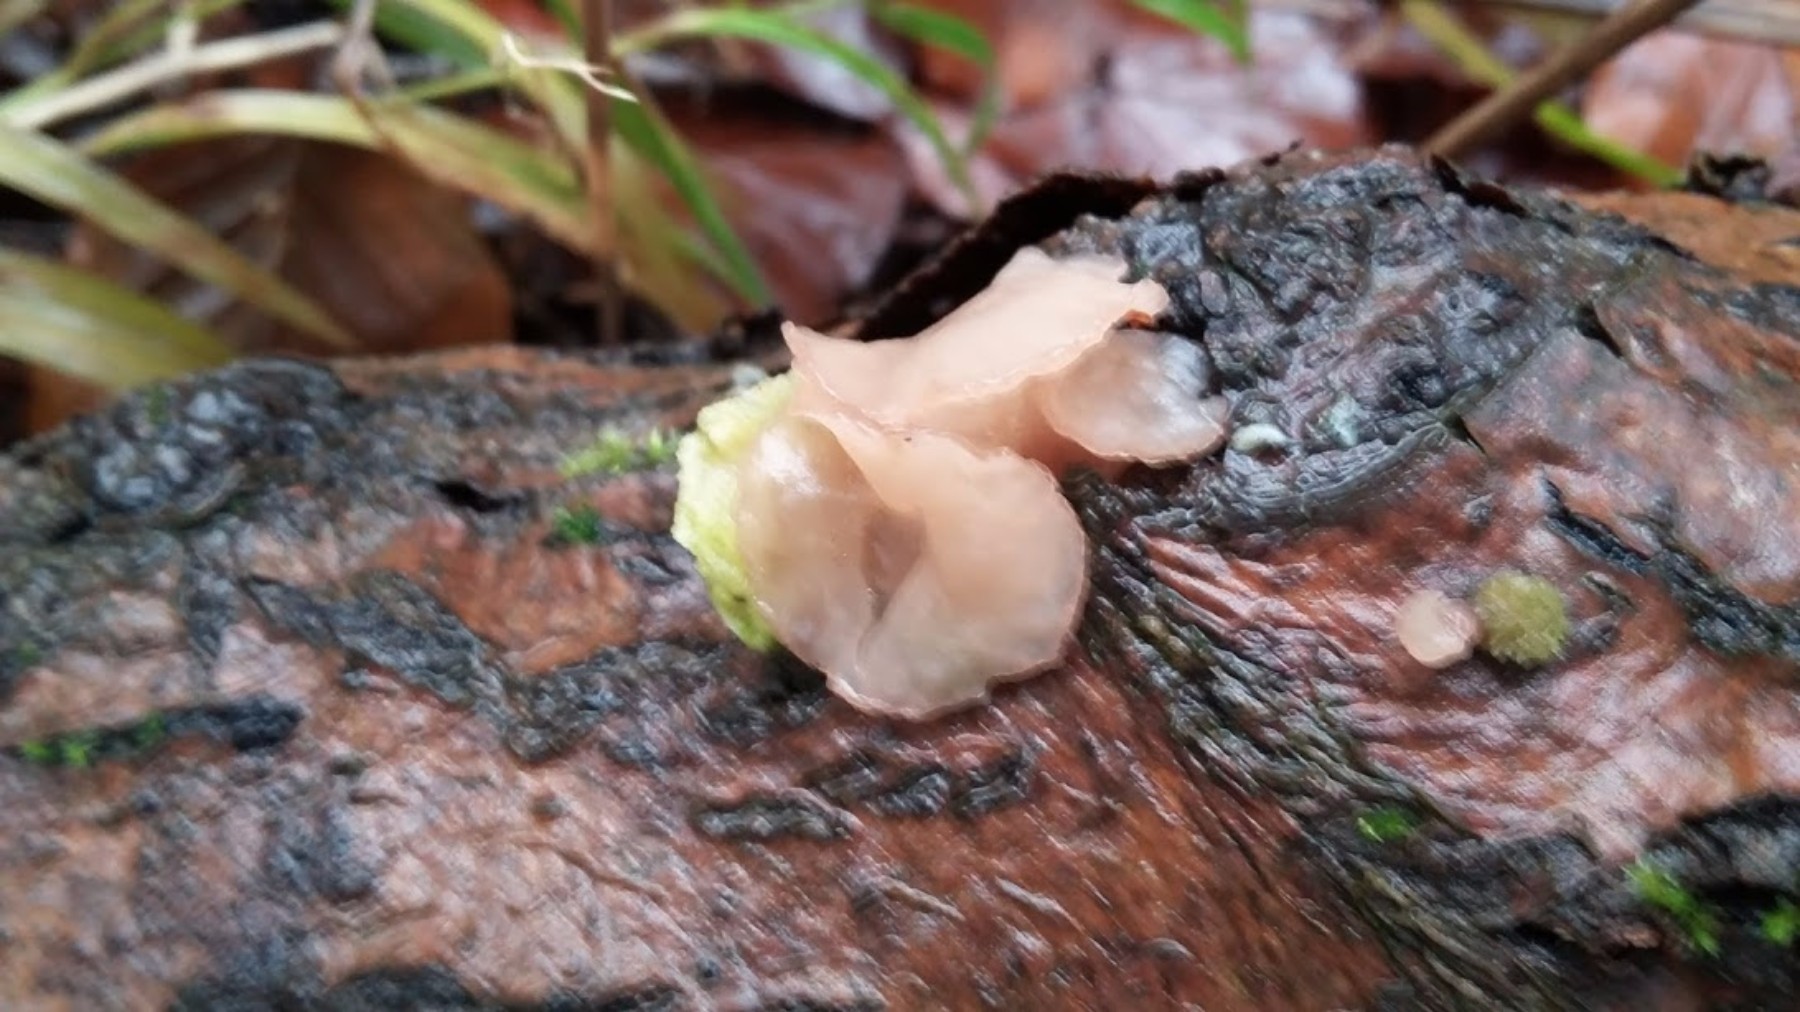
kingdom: Fungi
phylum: Ascomycota
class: Leotiomycetes
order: Helotiales
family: Gelatinodiscaceae
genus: Neobulgaria
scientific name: Neobulgaria pura
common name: bleg bævreskive
